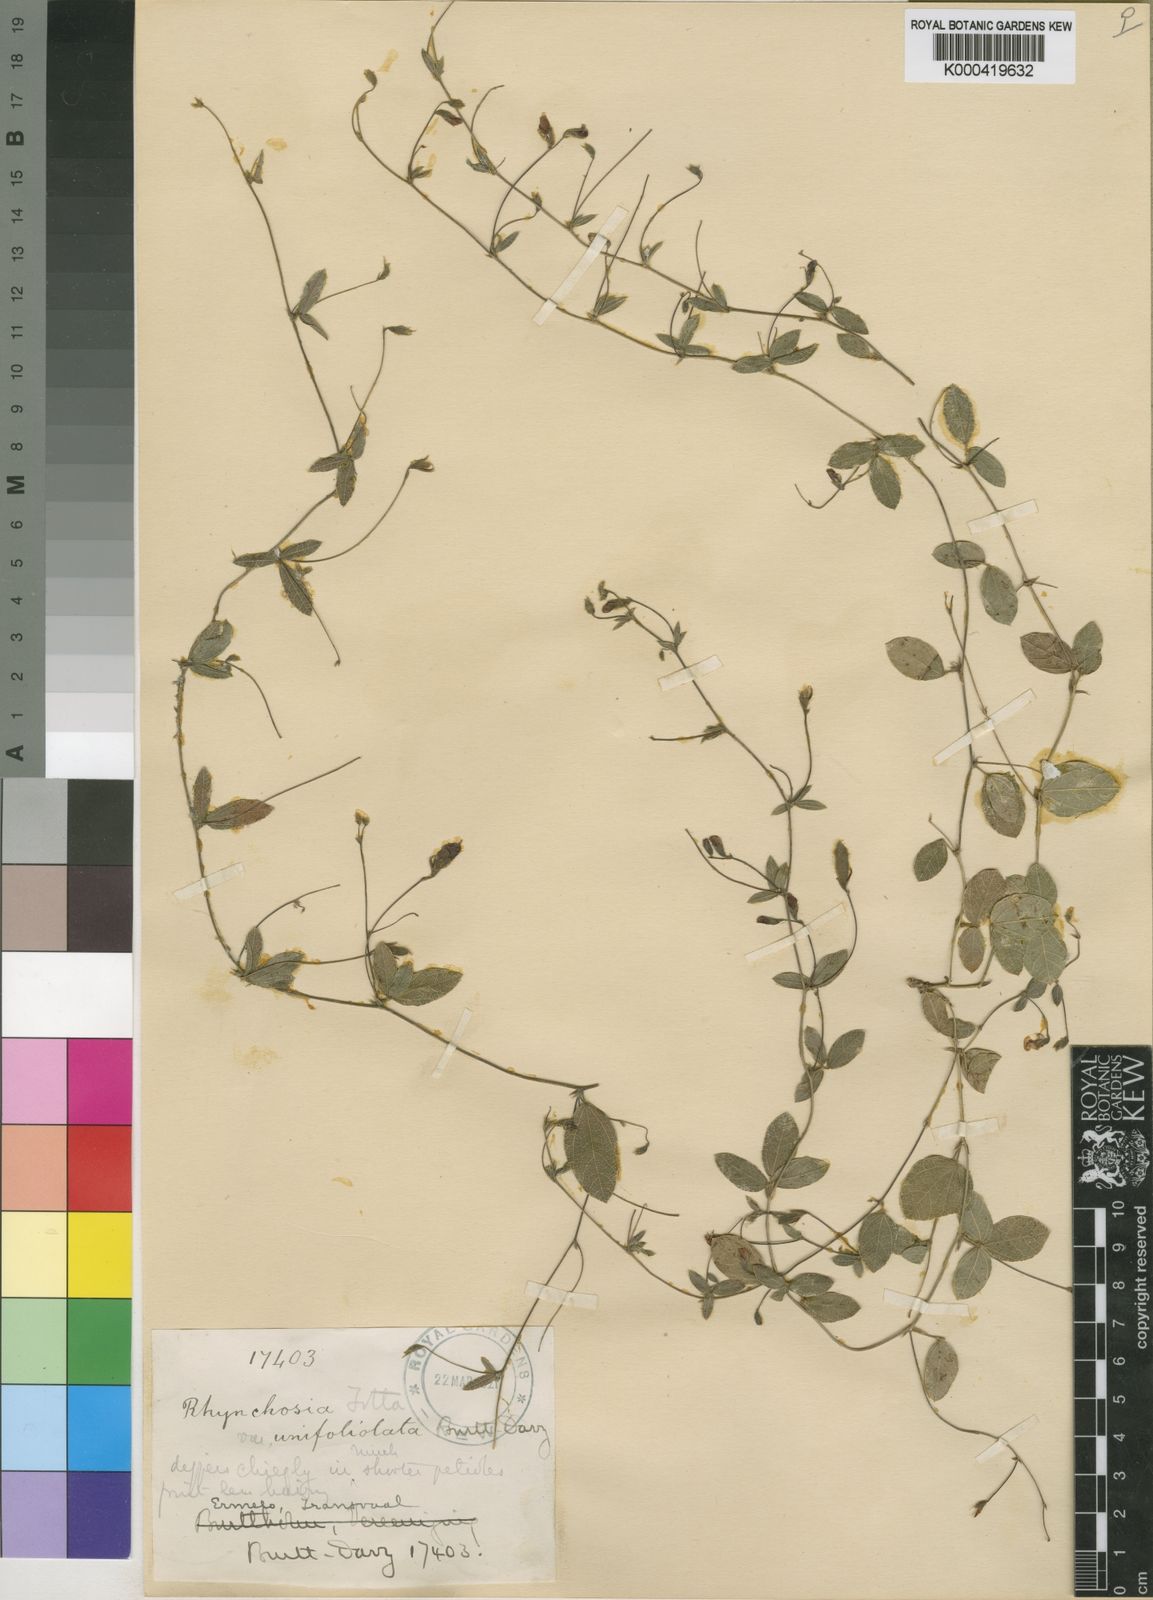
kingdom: Plantae
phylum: Tracheophyta
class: Magnoliopsida
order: Fabales
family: Fabaceae
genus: Rhynchosia
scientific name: Rhynchosia totta
